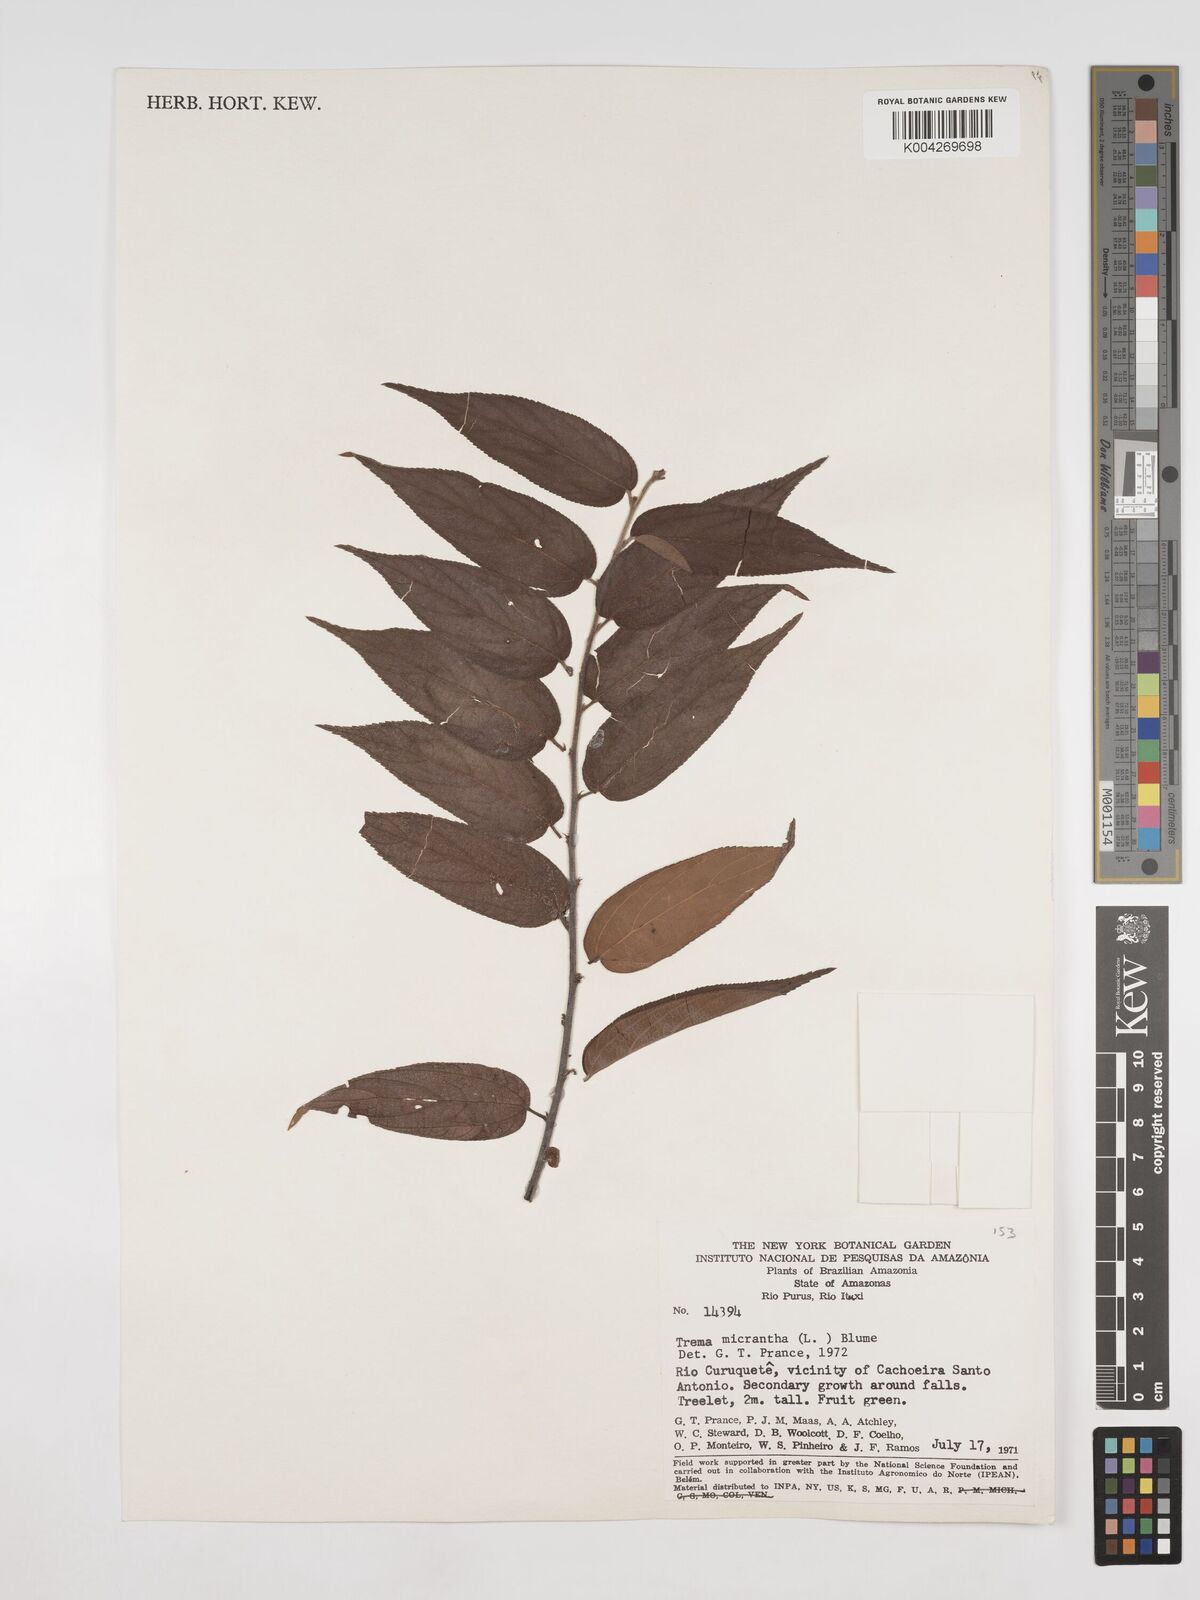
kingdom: Plantae
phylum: Tracheophyta
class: Magnoliopsida
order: Rosales
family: Cannabaceae
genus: Trema
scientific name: Trema micranthum
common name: Jamaican nettletree
